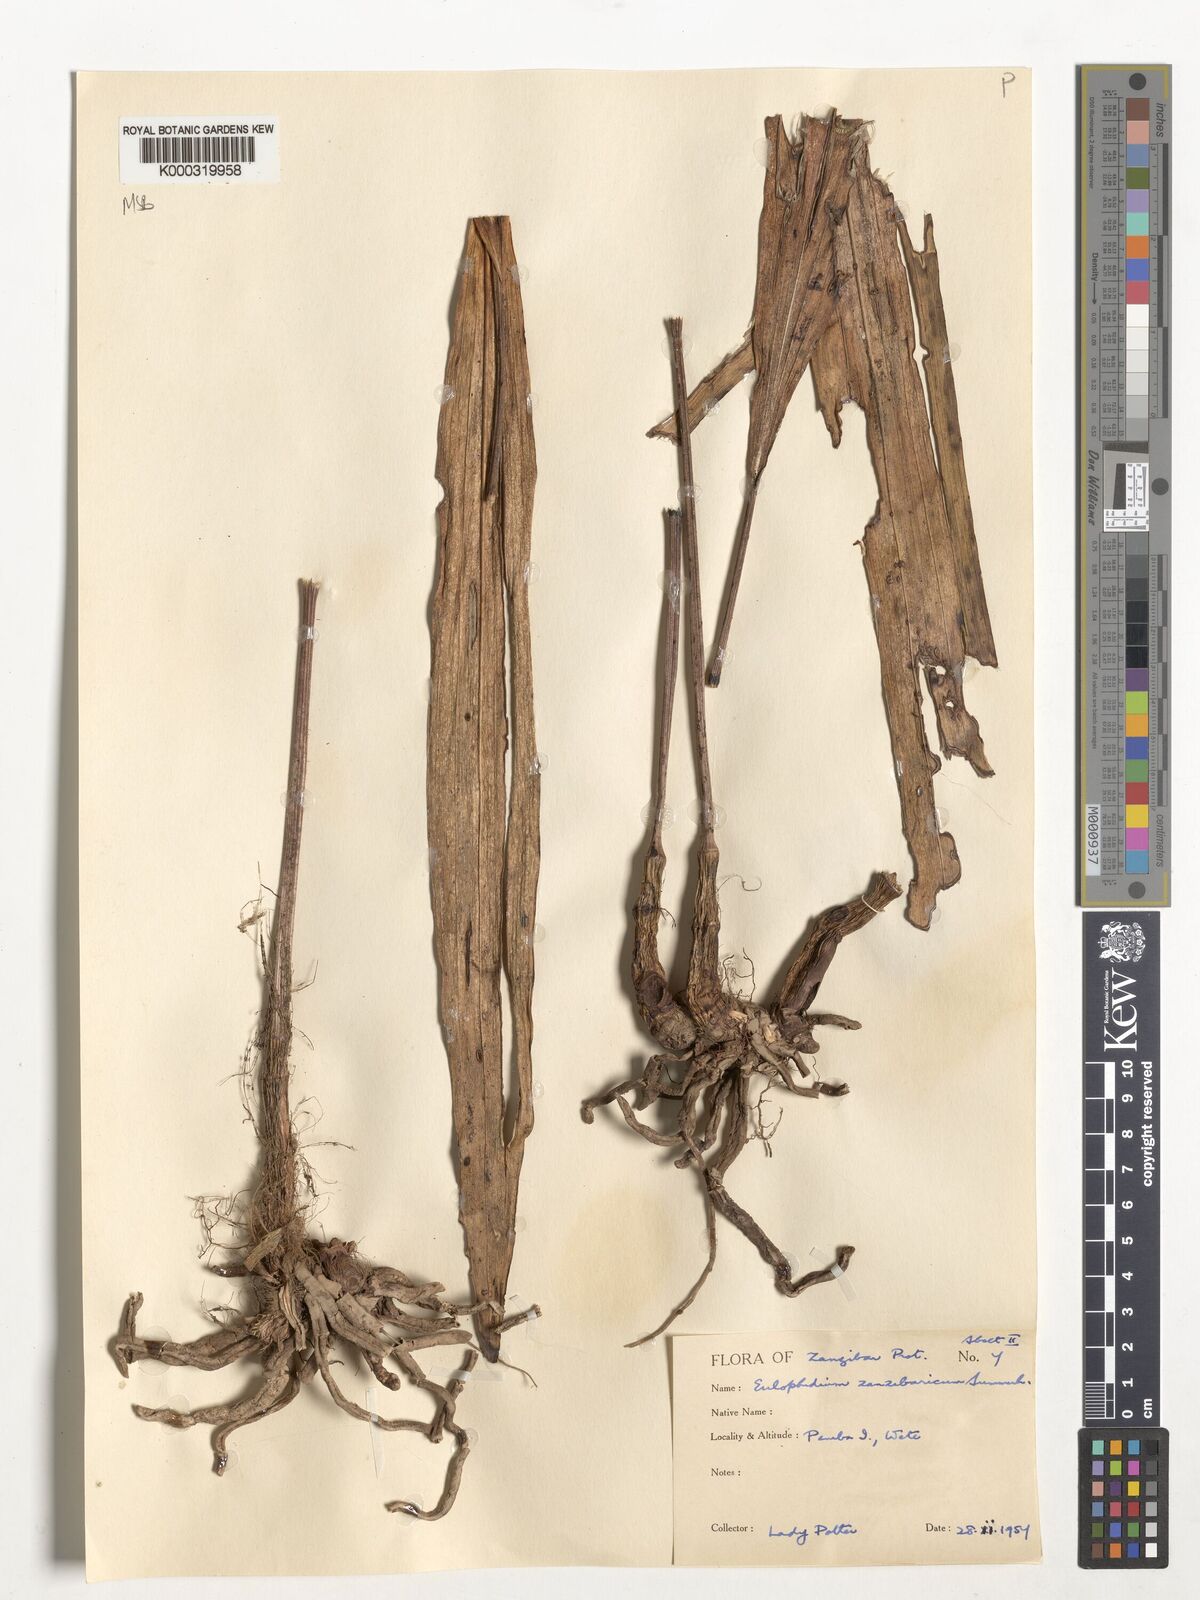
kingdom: Plantae
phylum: Tracheophyta
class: Liliopsida
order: Asparagales
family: Orchidaceae
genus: Eulophia
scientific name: Eulophia zanzibarica
